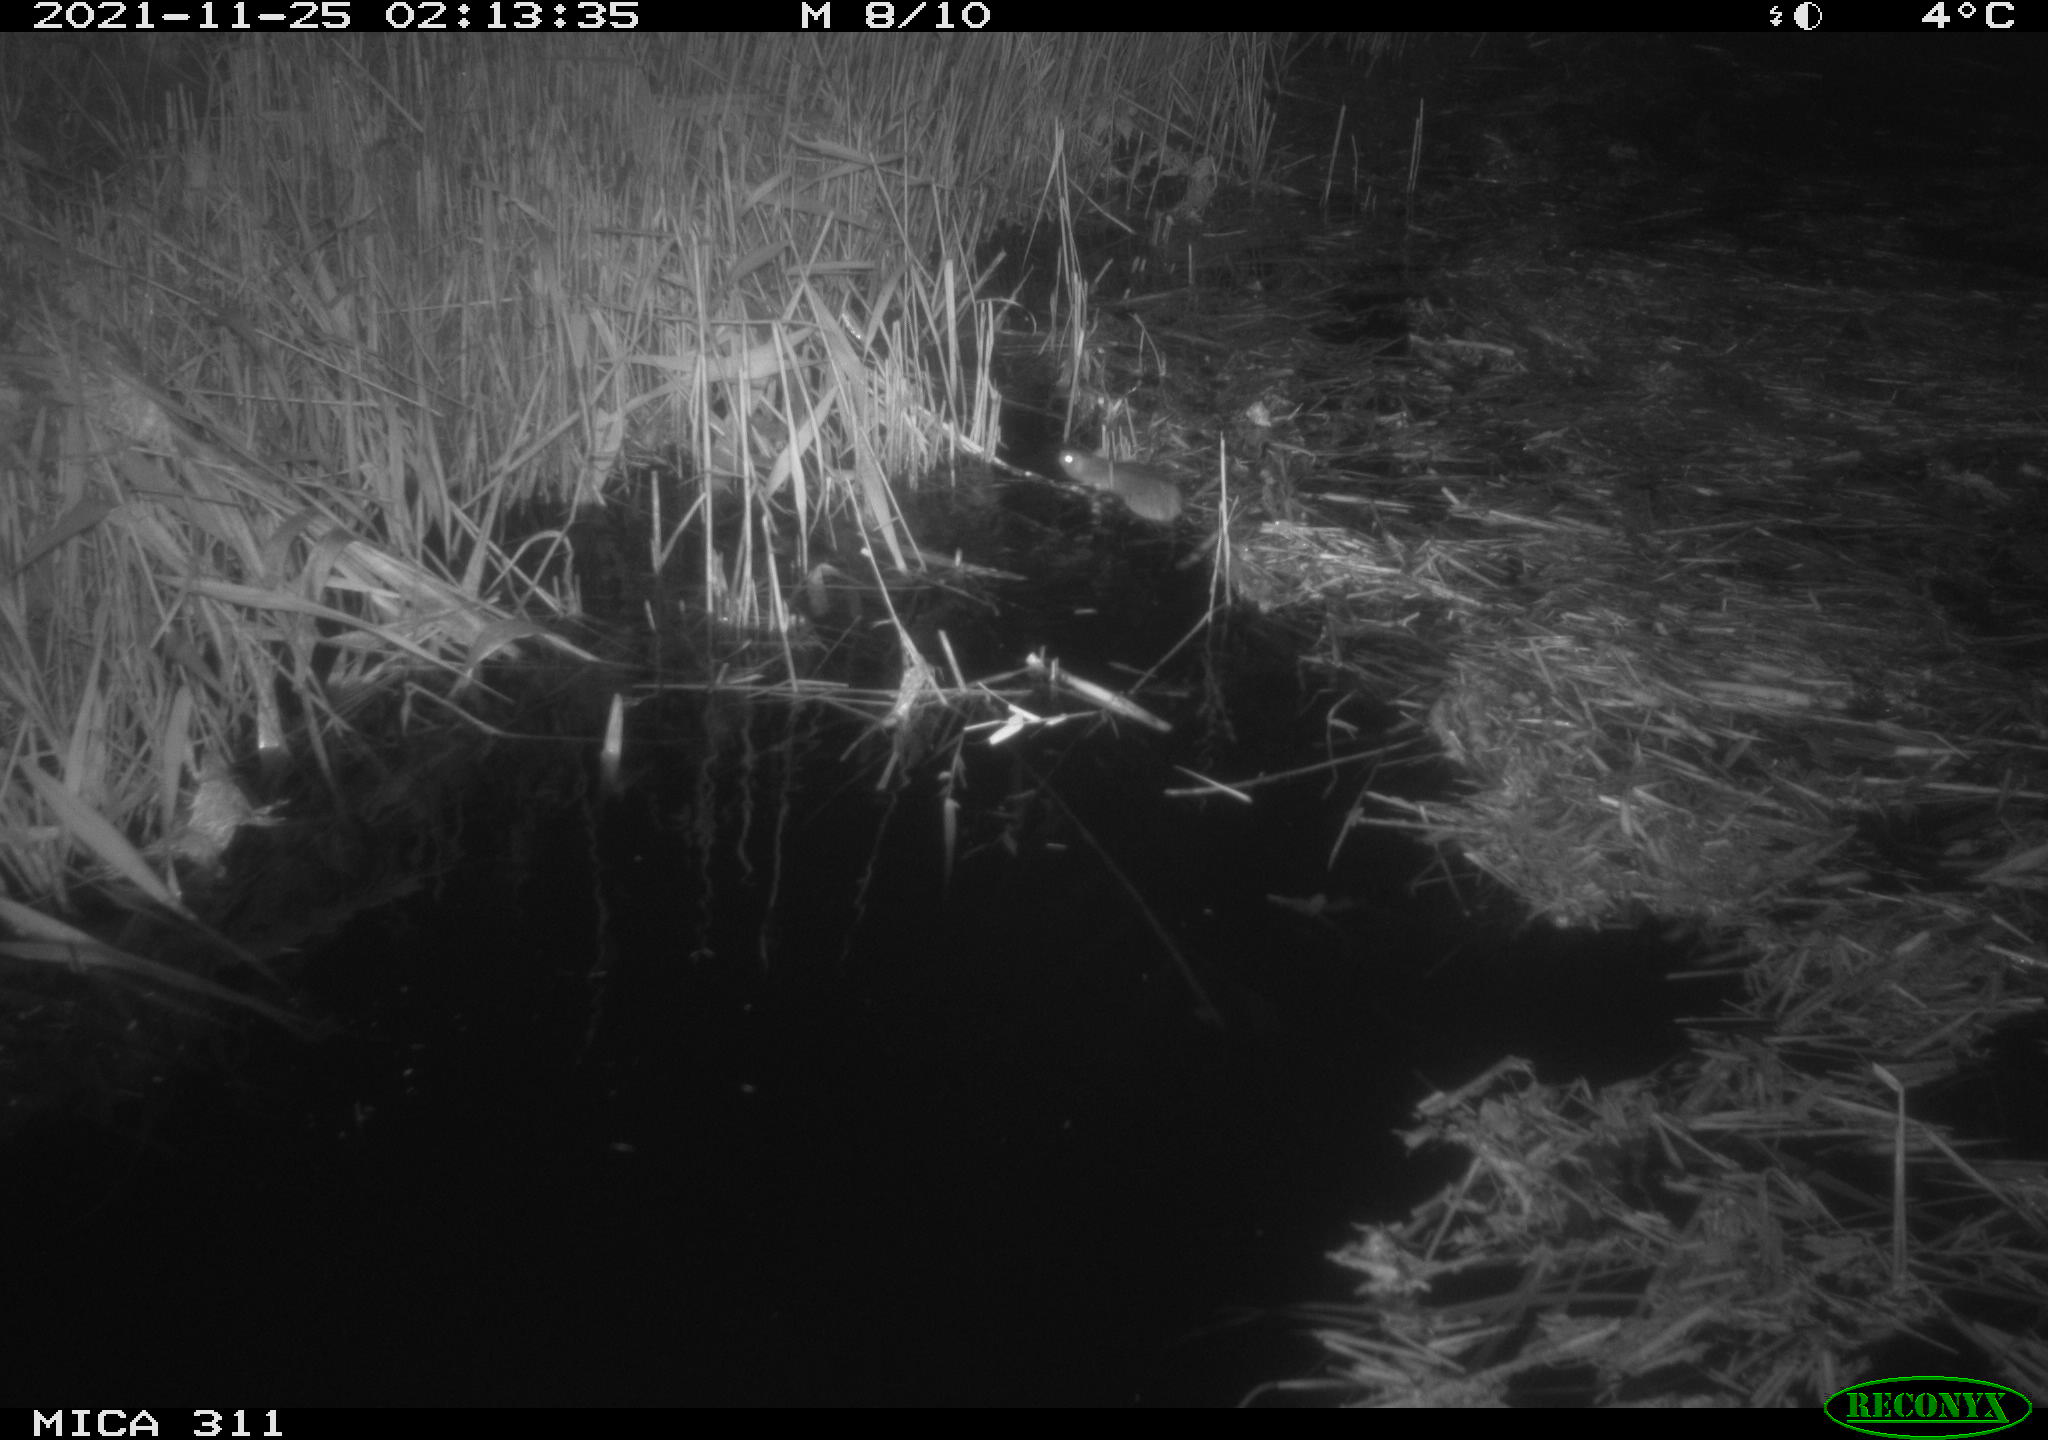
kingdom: Animalia
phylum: Chordata
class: Mammalia
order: Rodentia
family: Muridae
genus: Rattus
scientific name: Rattus norvegicus
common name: Brown rat
